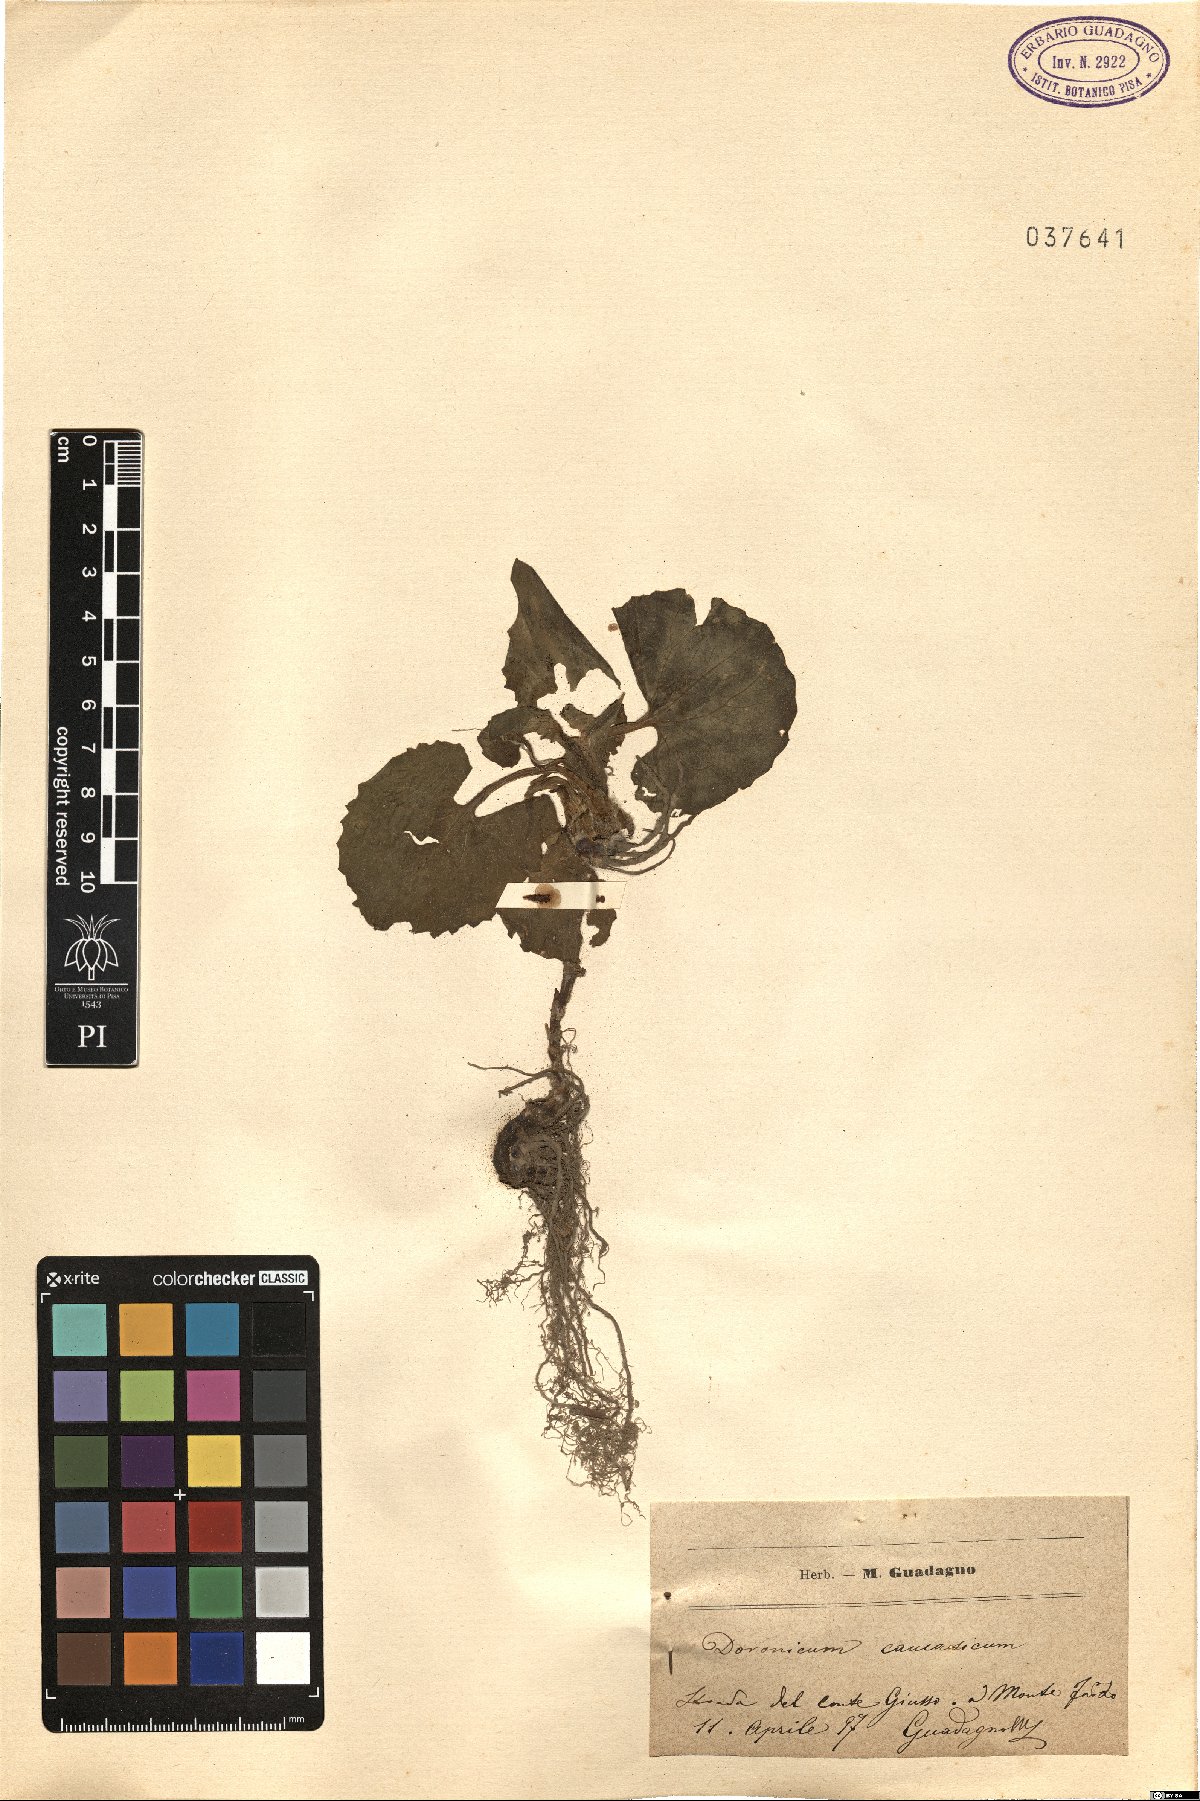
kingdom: Plantae
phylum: Tracheophyta
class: Magnoliopsida
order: Asterales
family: Asteraceae
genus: Doronicum
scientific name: Doronicum orientale
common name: Oriental leopard's-bane
